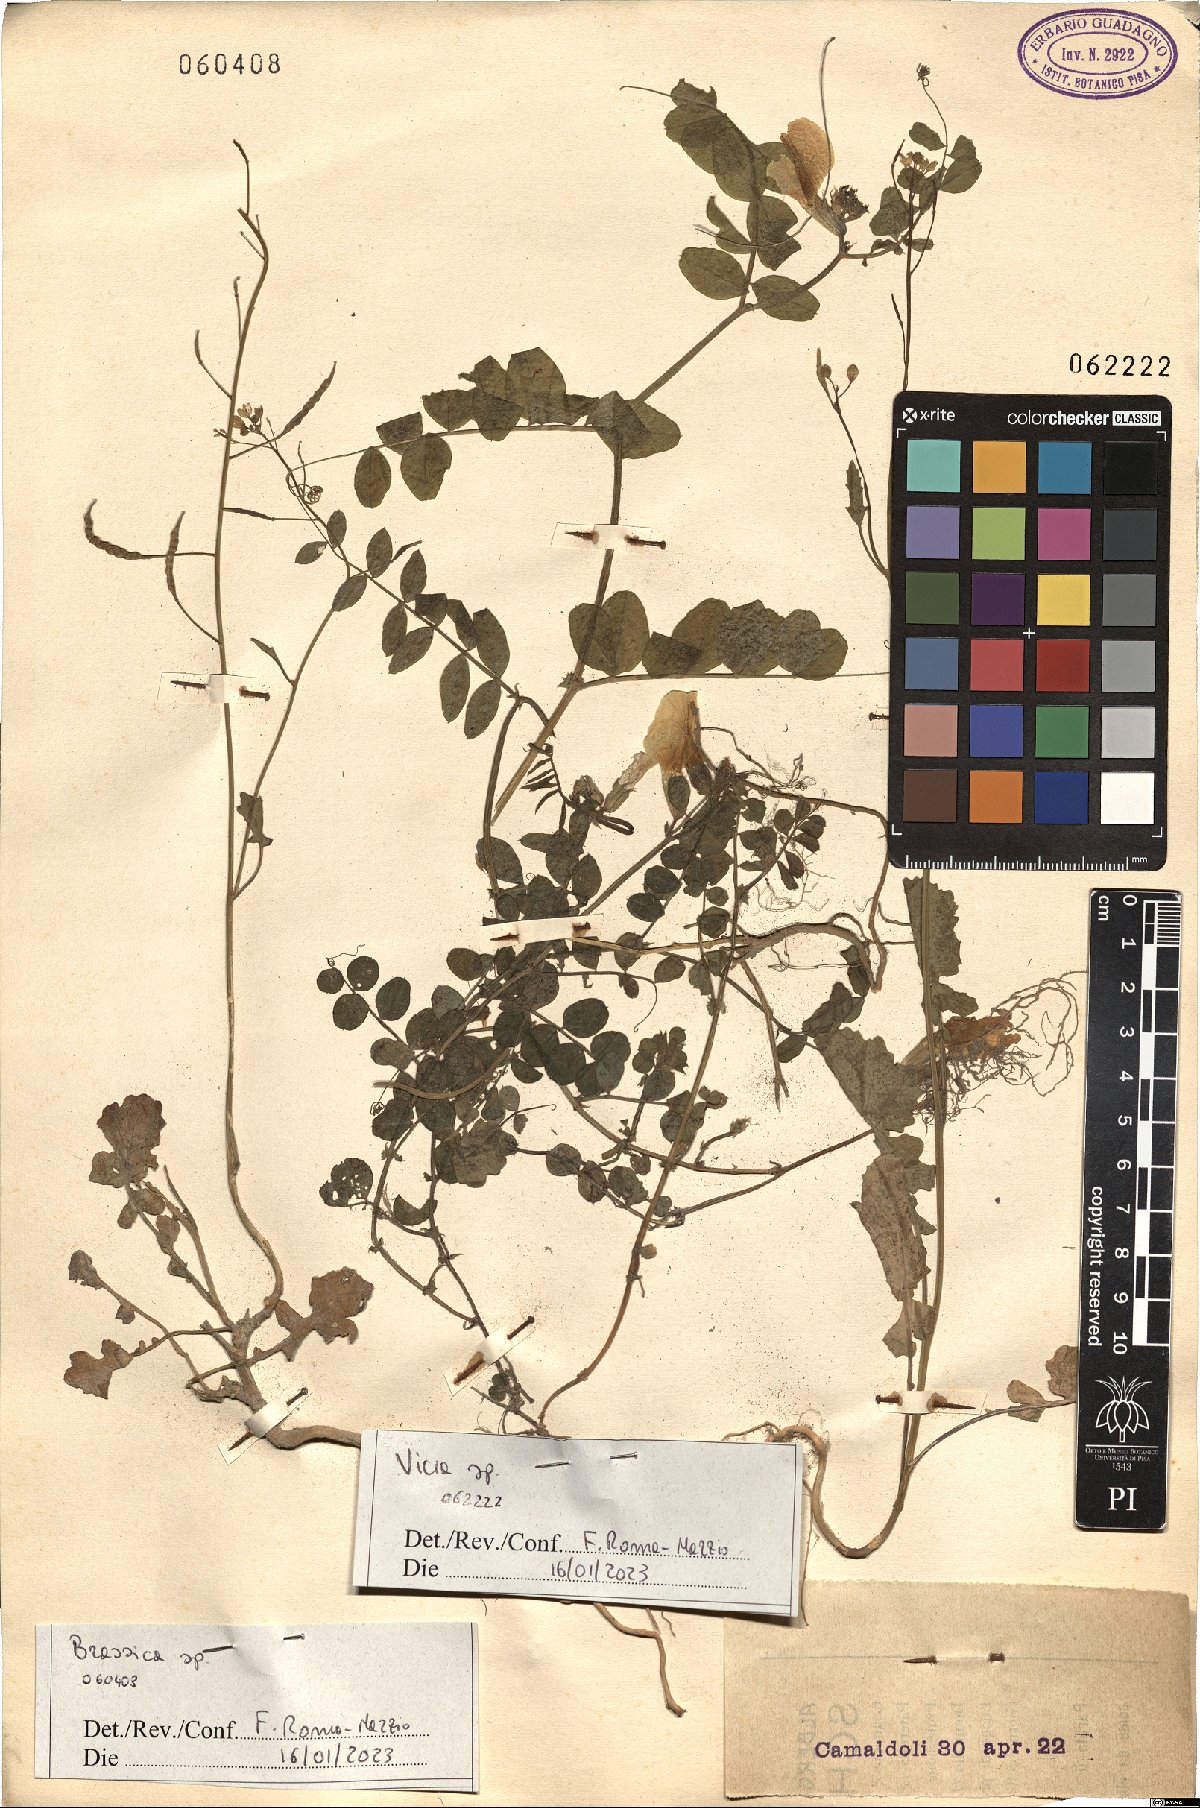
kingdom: Plantae
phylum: Tracheophyta
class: Magnoliopsida
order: Fabales
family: Fabaceae
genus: Vicia
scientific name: Vicia
